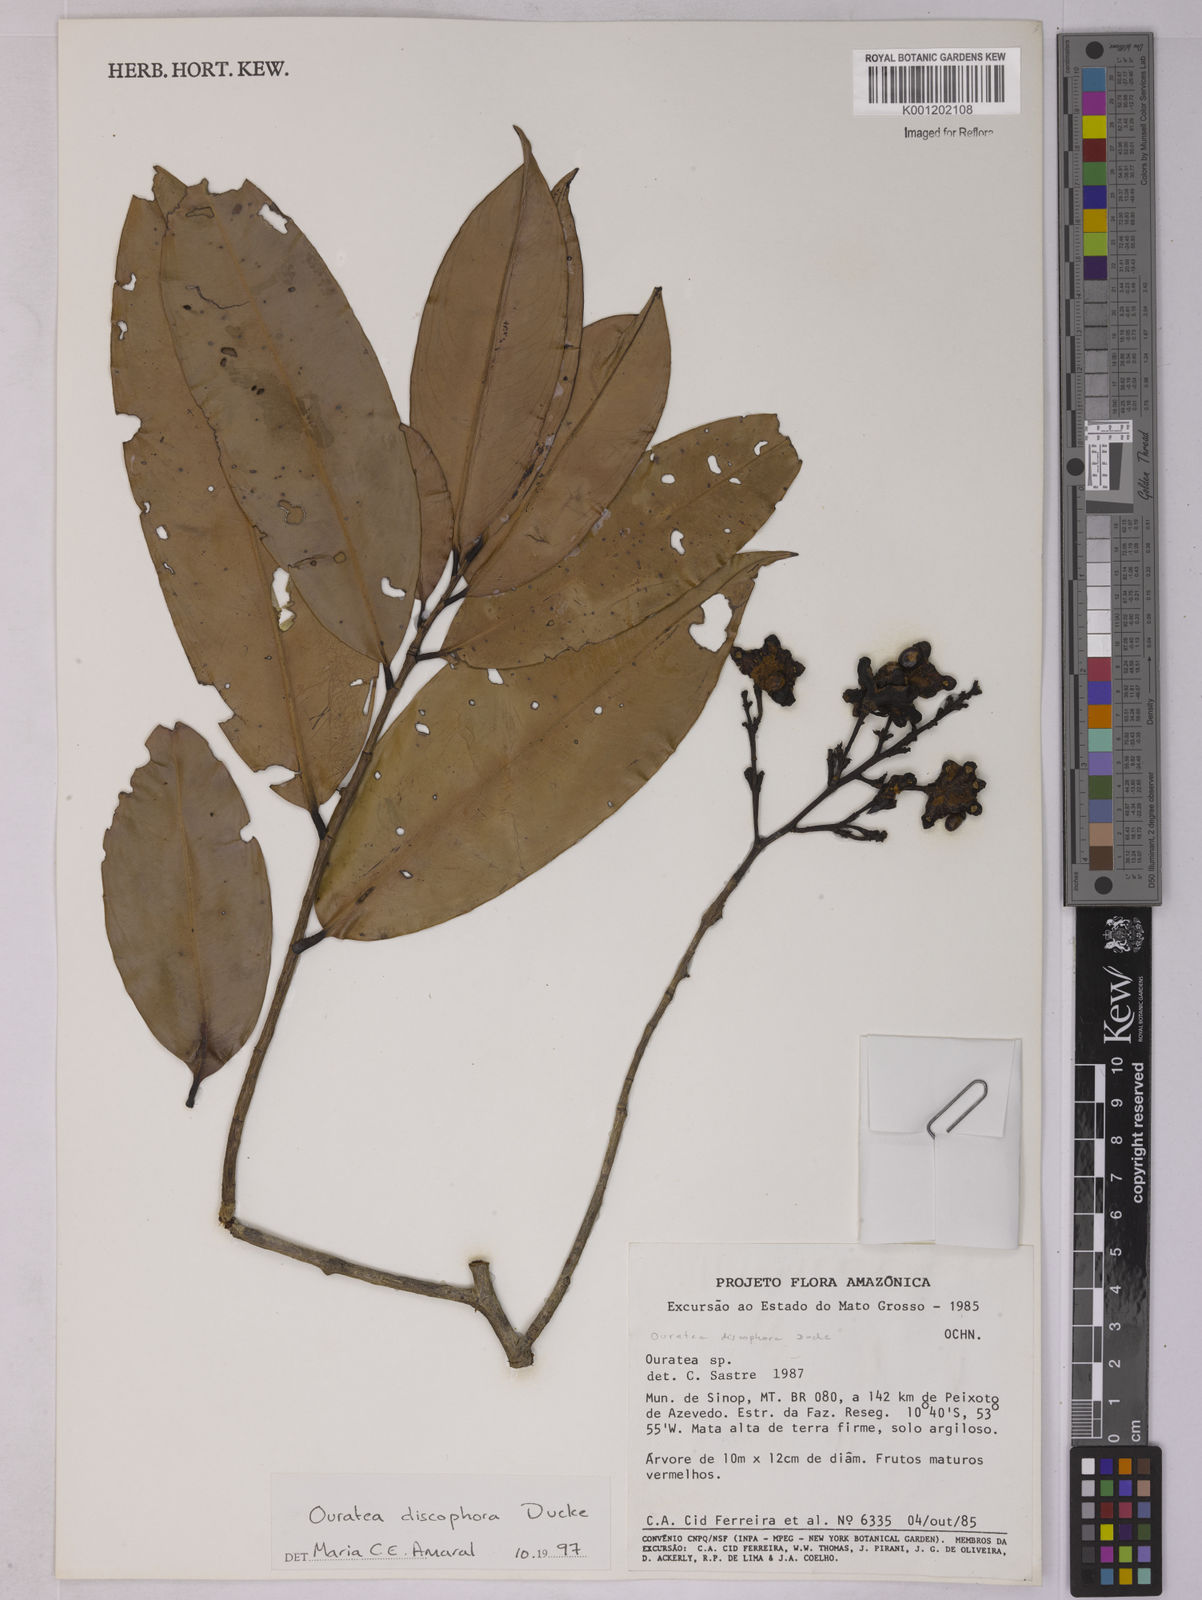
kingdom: Plantae
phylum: Tracheophyta
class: Magnoliopsida
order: Malpighiales
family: Ochnaceae
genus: Ouratea
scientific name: Ouratea discophora
